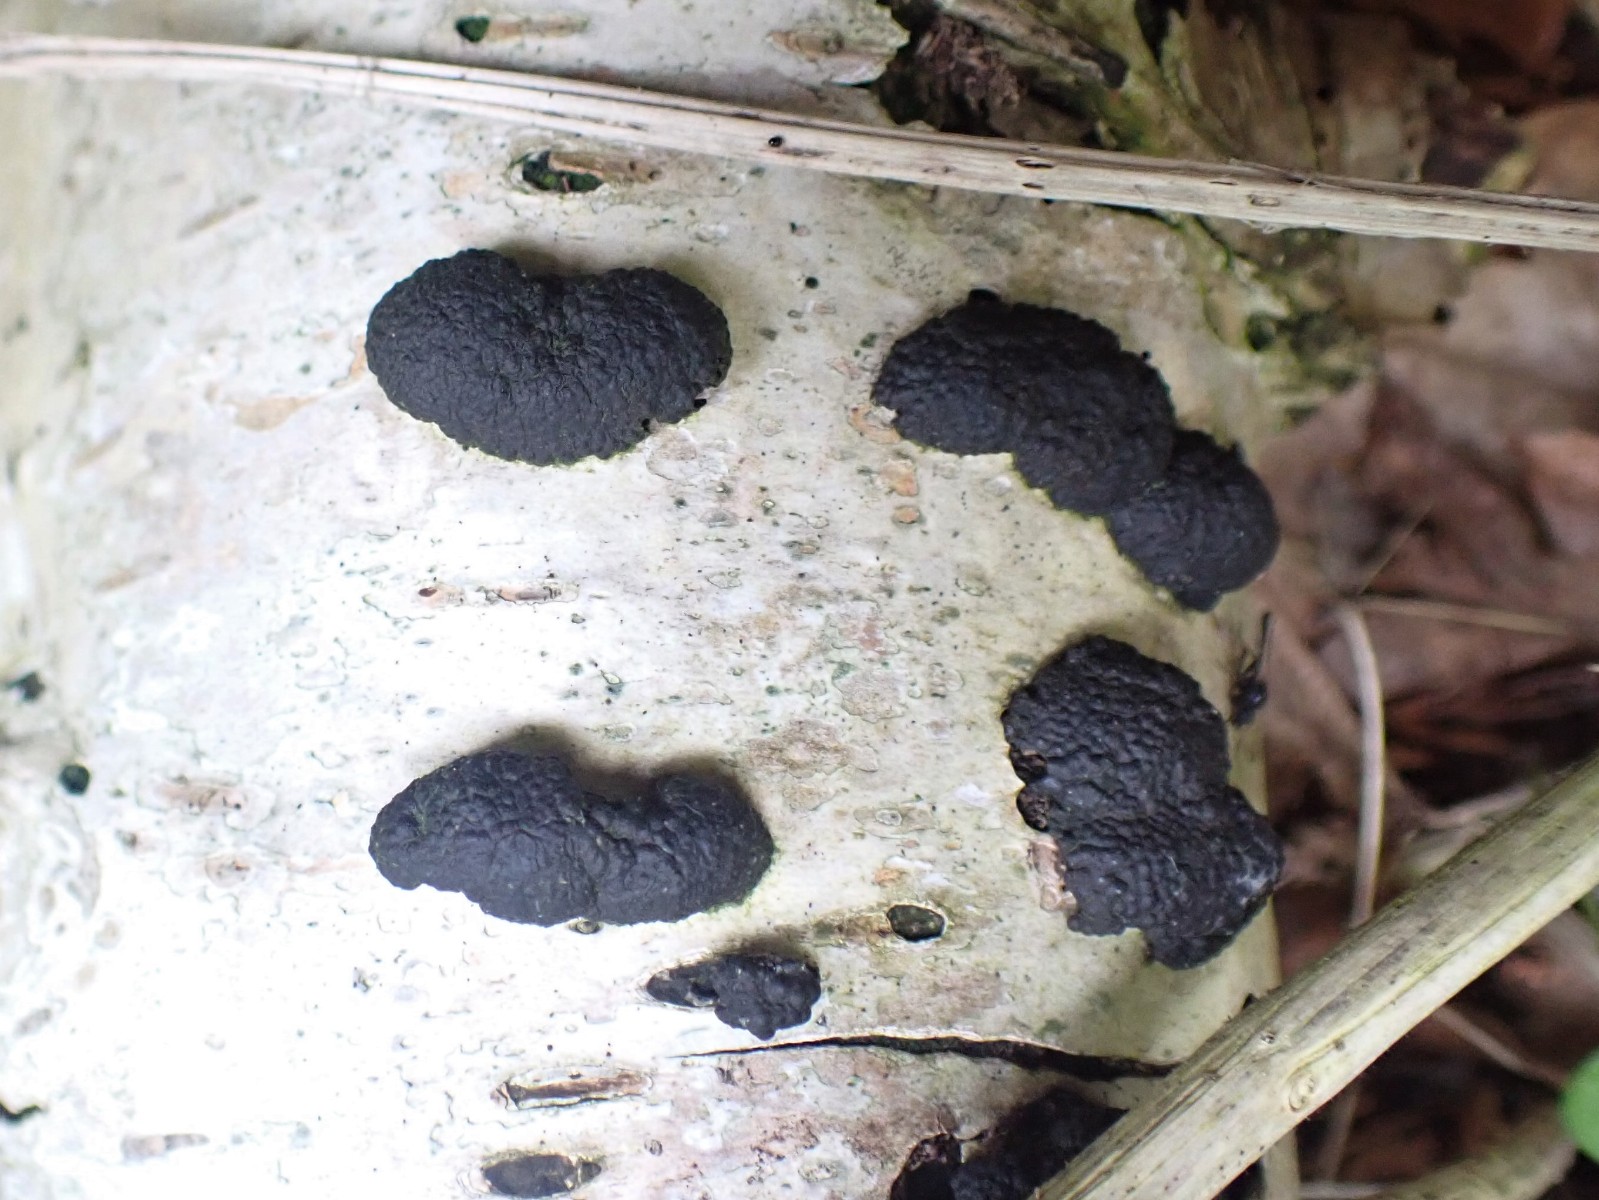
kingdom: Fungi
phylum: Ascomycota
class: Sordariomycetes
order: Xylariales
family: Hypoxylaceae
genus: Jackrogersella
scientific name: Jackrogersella multiformis
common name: foranderlig kulbær
